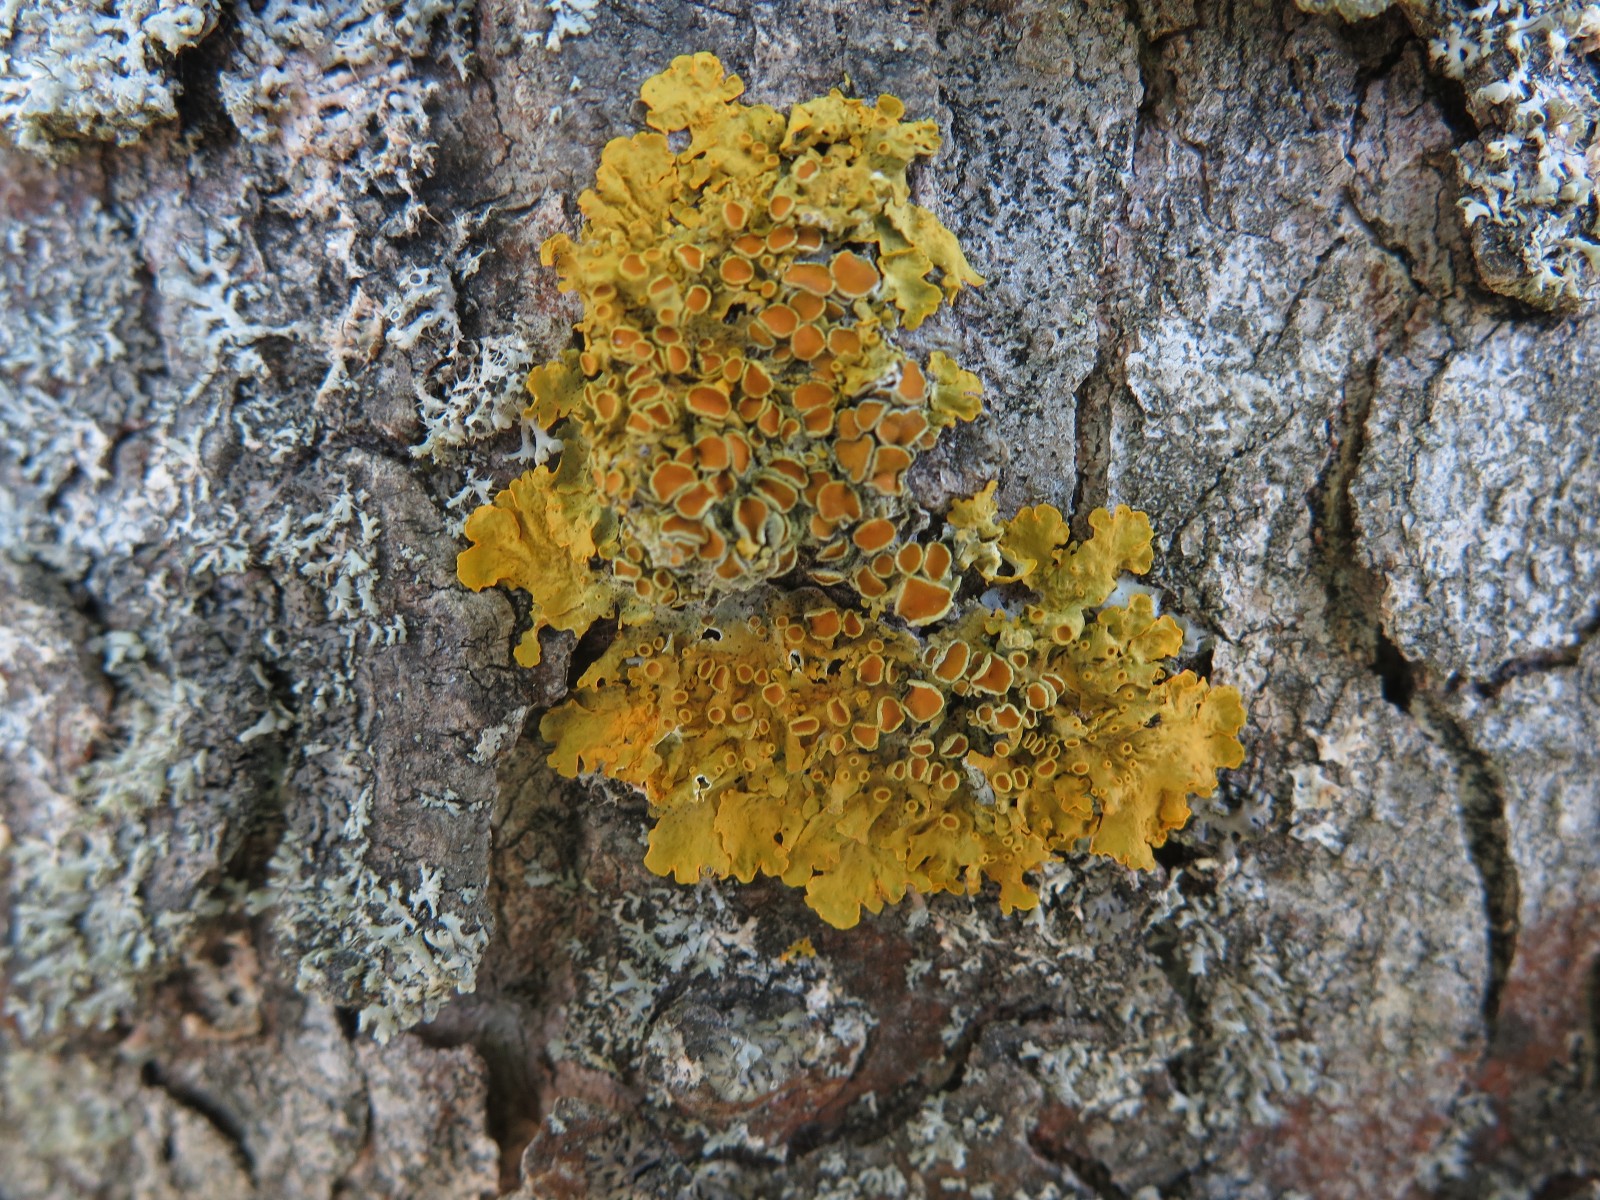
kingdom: Fungi
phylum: Ascomycota
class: Lecanoromycetes
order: Teloschistales
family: Teloschistaceae
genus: Xanthoria
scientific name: Xanthoria parietina
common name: almindelig væggelav
